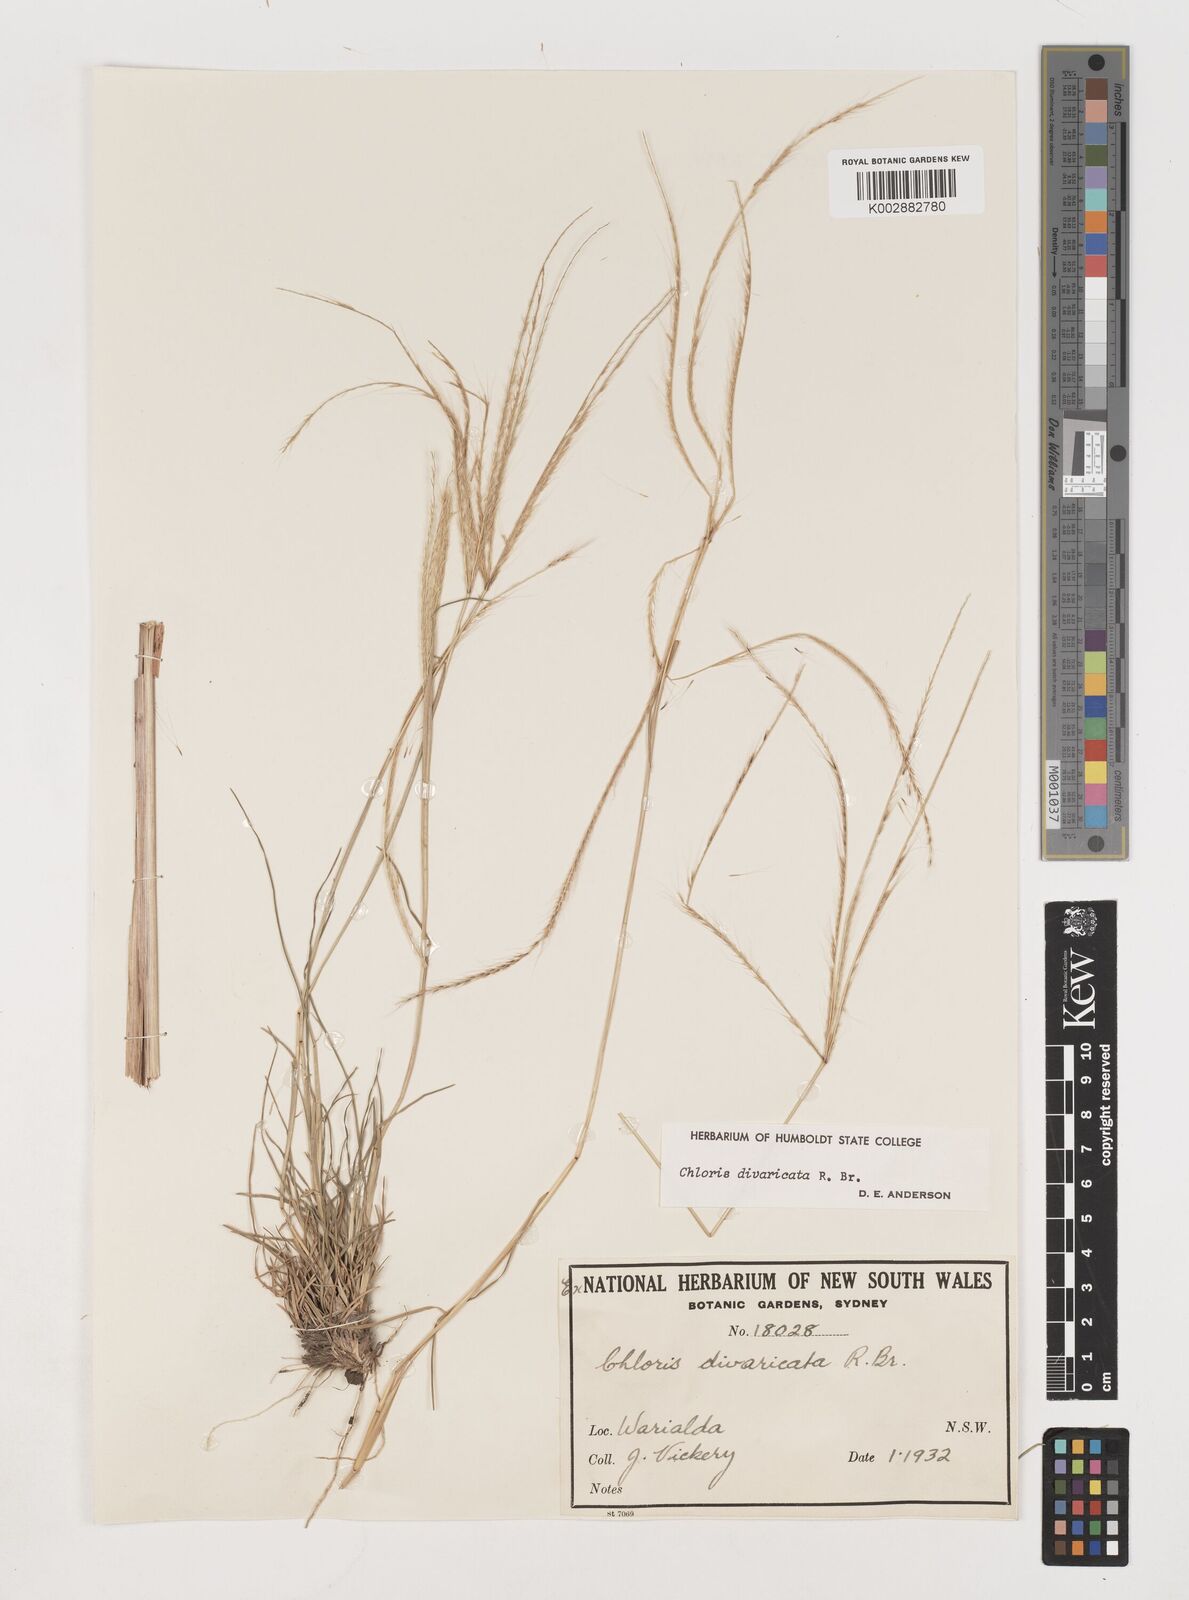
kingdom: Plantae
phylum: Tracheophyta
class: Liliopsida
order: Poales
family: Poaceae
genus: Chloris
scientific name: Chloris divaricata
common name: Spreading windmill grass
